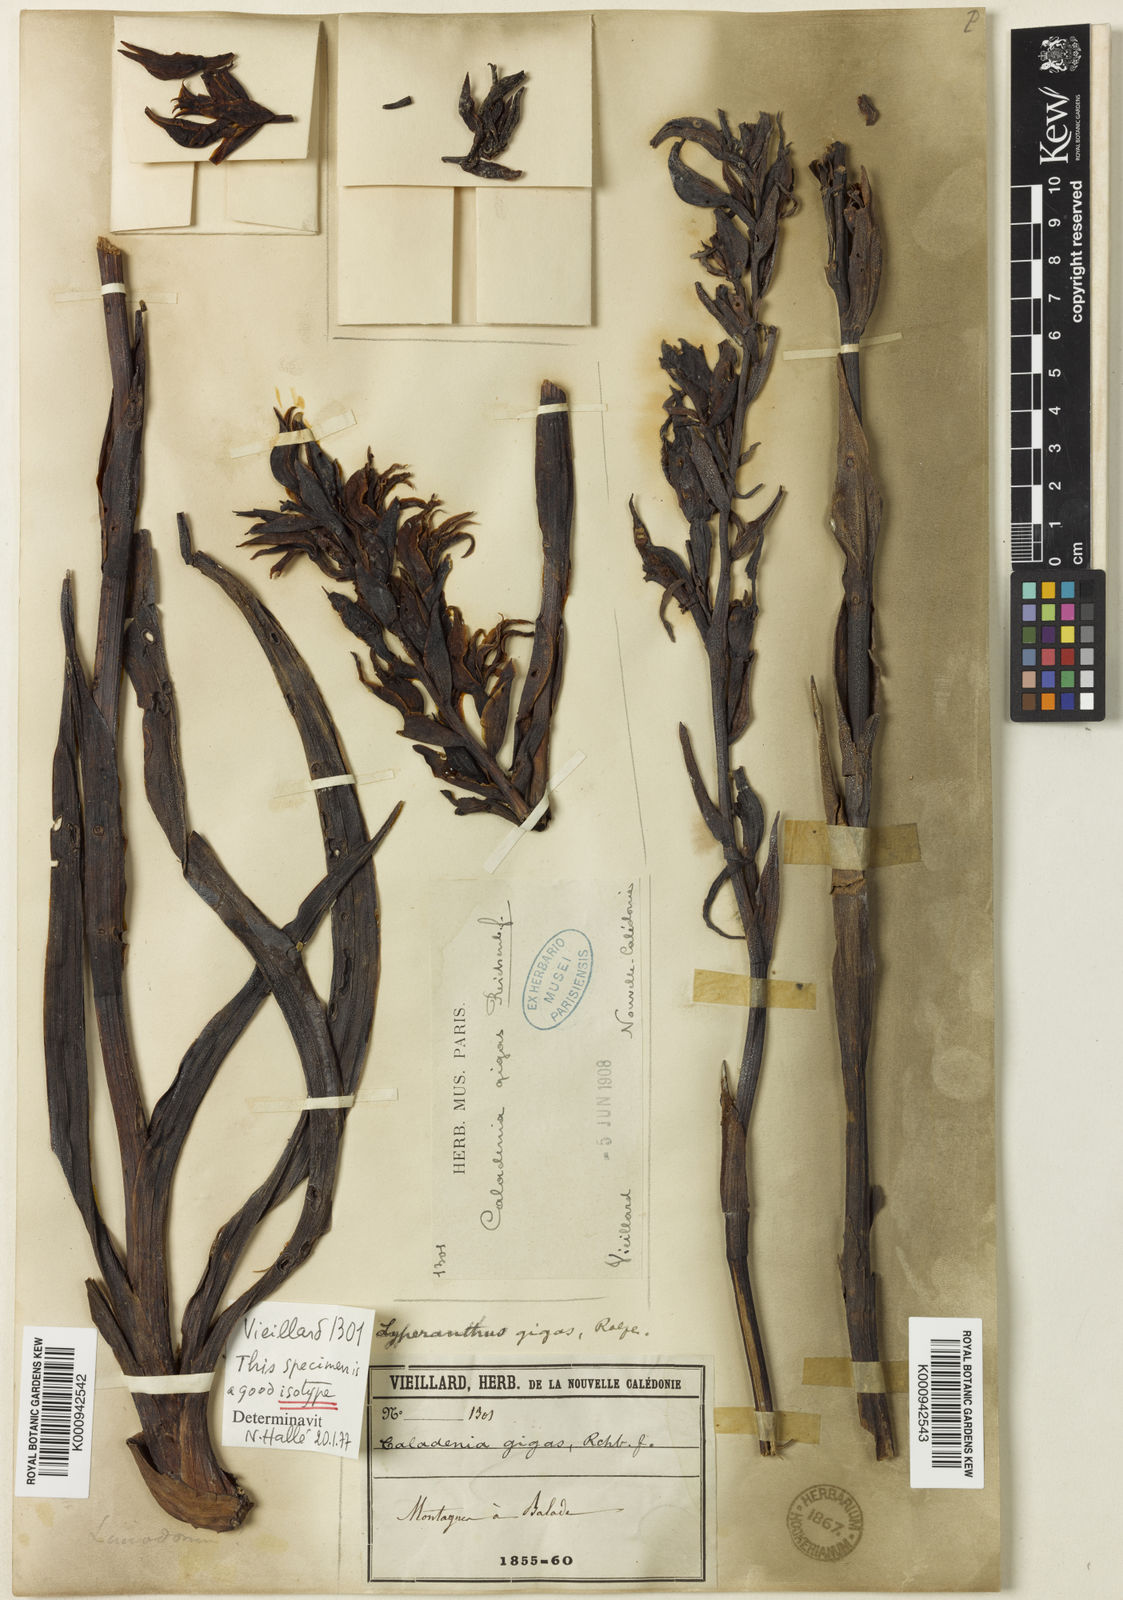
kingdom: Plantae
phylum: Tracheophyta
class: Liliopsida
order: Asparagales
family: Orchidaceae
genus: Megastylis
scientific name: Megastylis gigas
